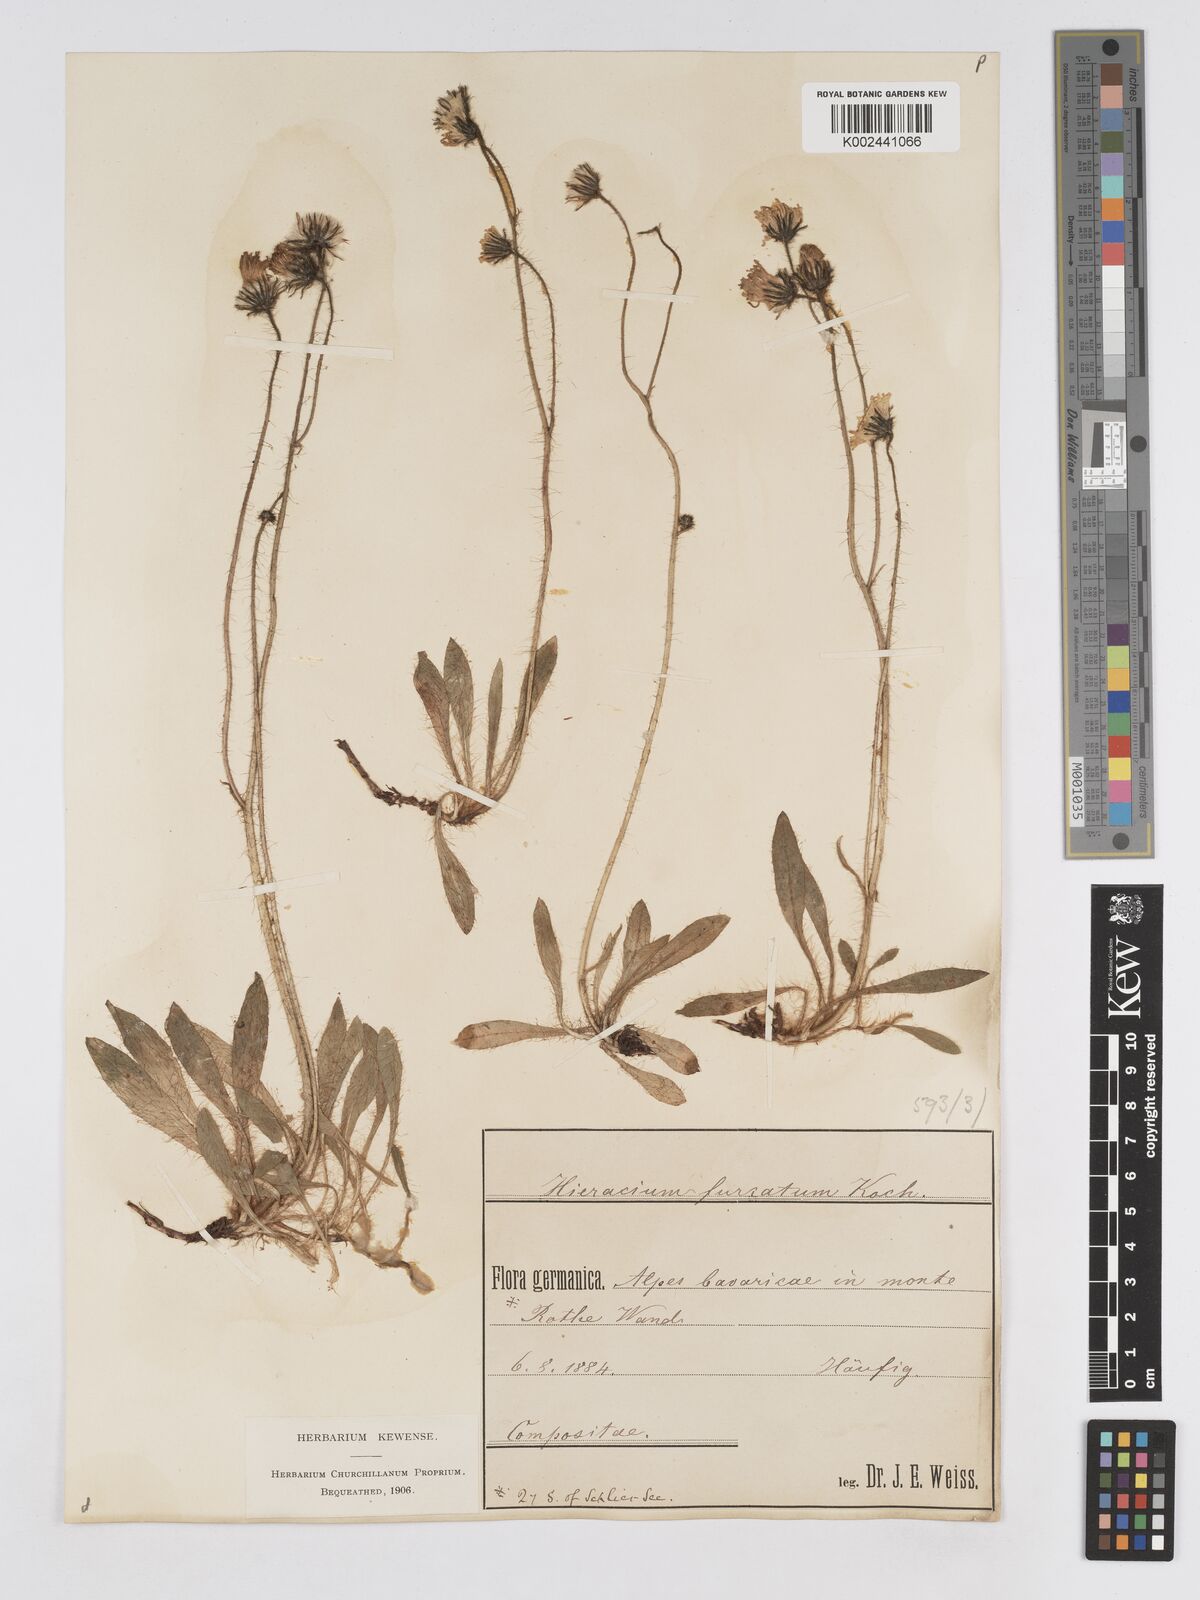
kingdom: Plantae
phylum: Tracheophyta
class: Magnoliopsida
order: Asterales
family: Asteraceae
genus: Pilosella
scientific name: Pilosella sphaerocephala
